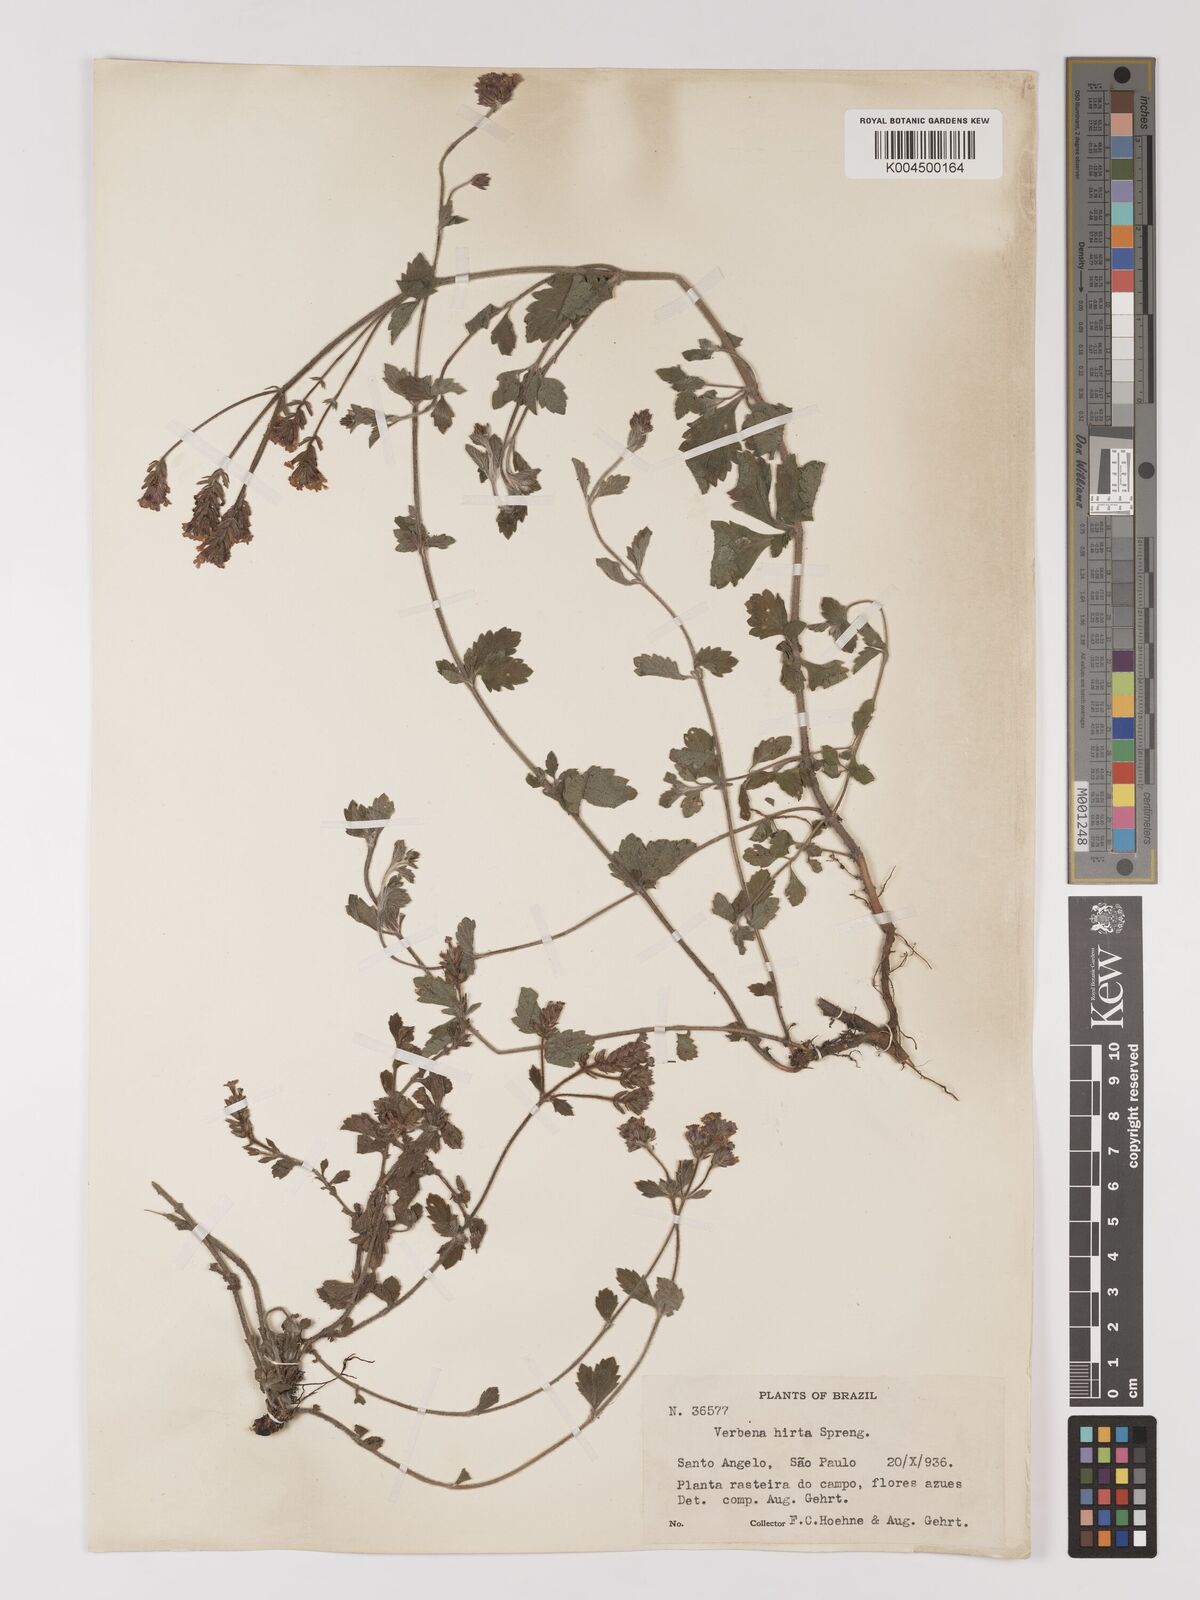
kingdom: Plantae
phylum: Tracheophyta
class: Magnoliopsida
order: Lamiales
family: Verbenaceae
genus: Verbena
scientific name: Verbena hirta
